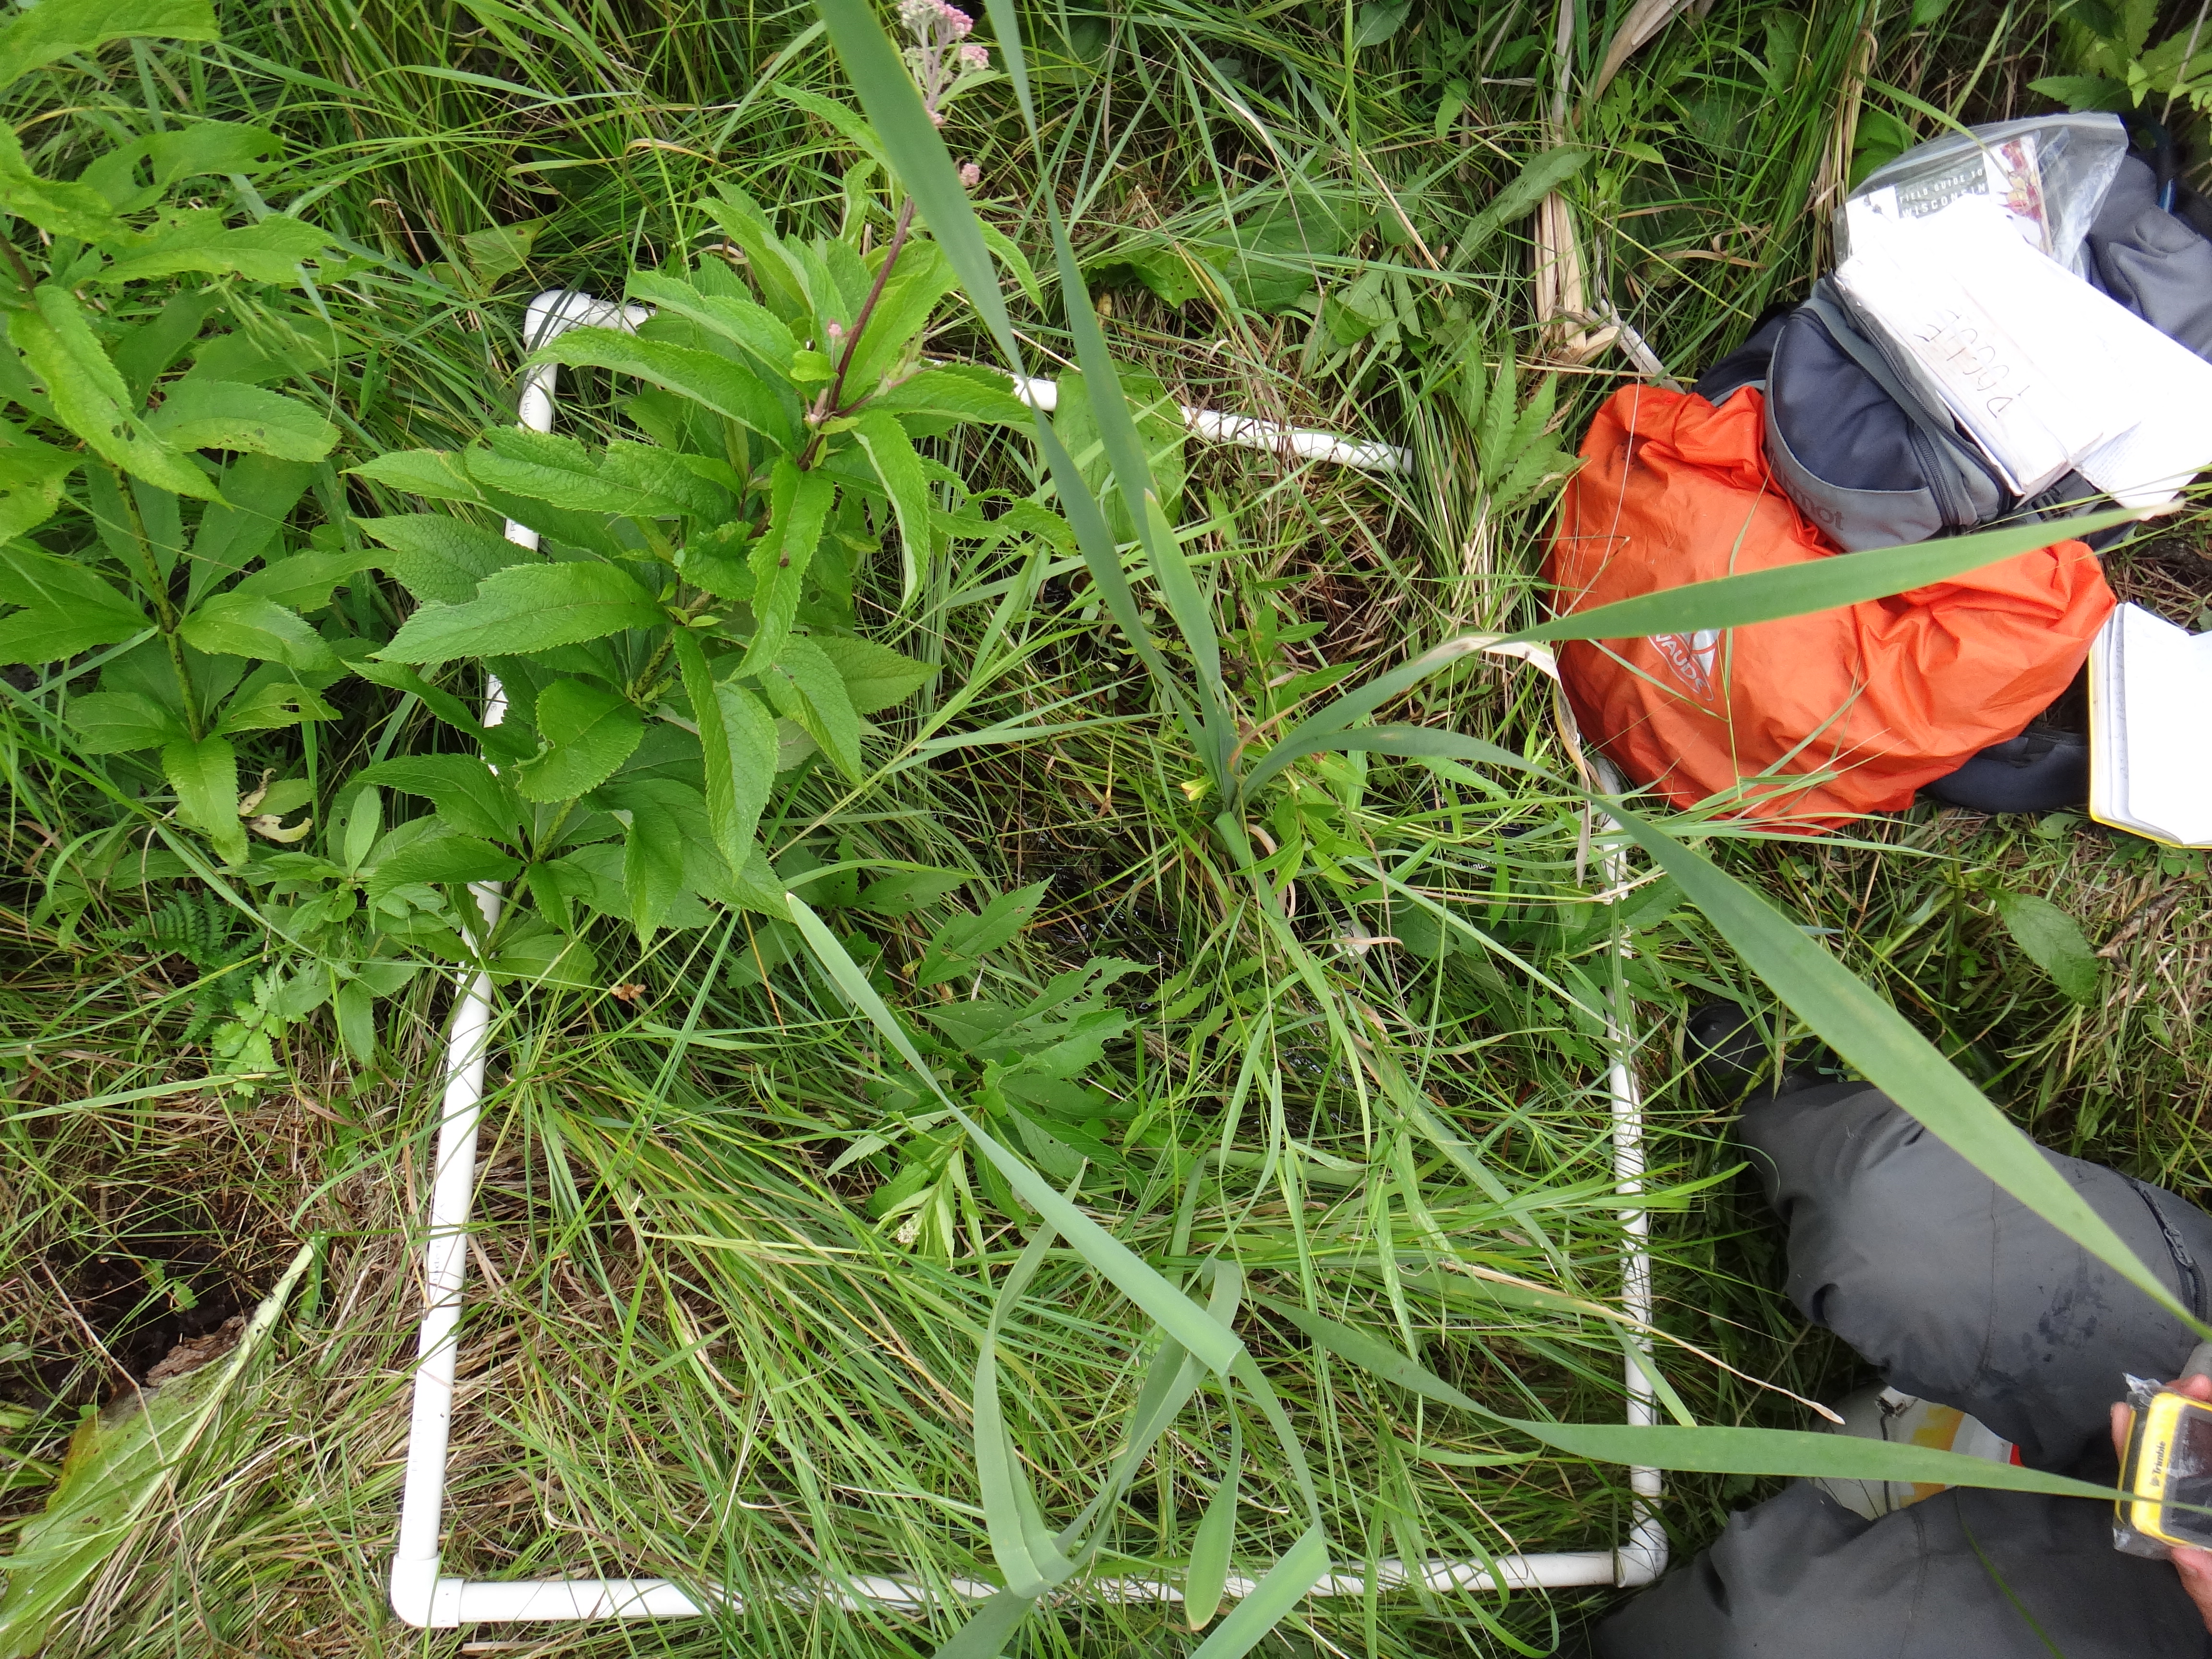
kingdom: Plantae
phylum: Tracheophyta
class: Polypodiopsida
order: Equisetales
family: Equisetaceae
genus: Equisetum
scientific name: Equisetum fluviatile
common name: Water horsetail
